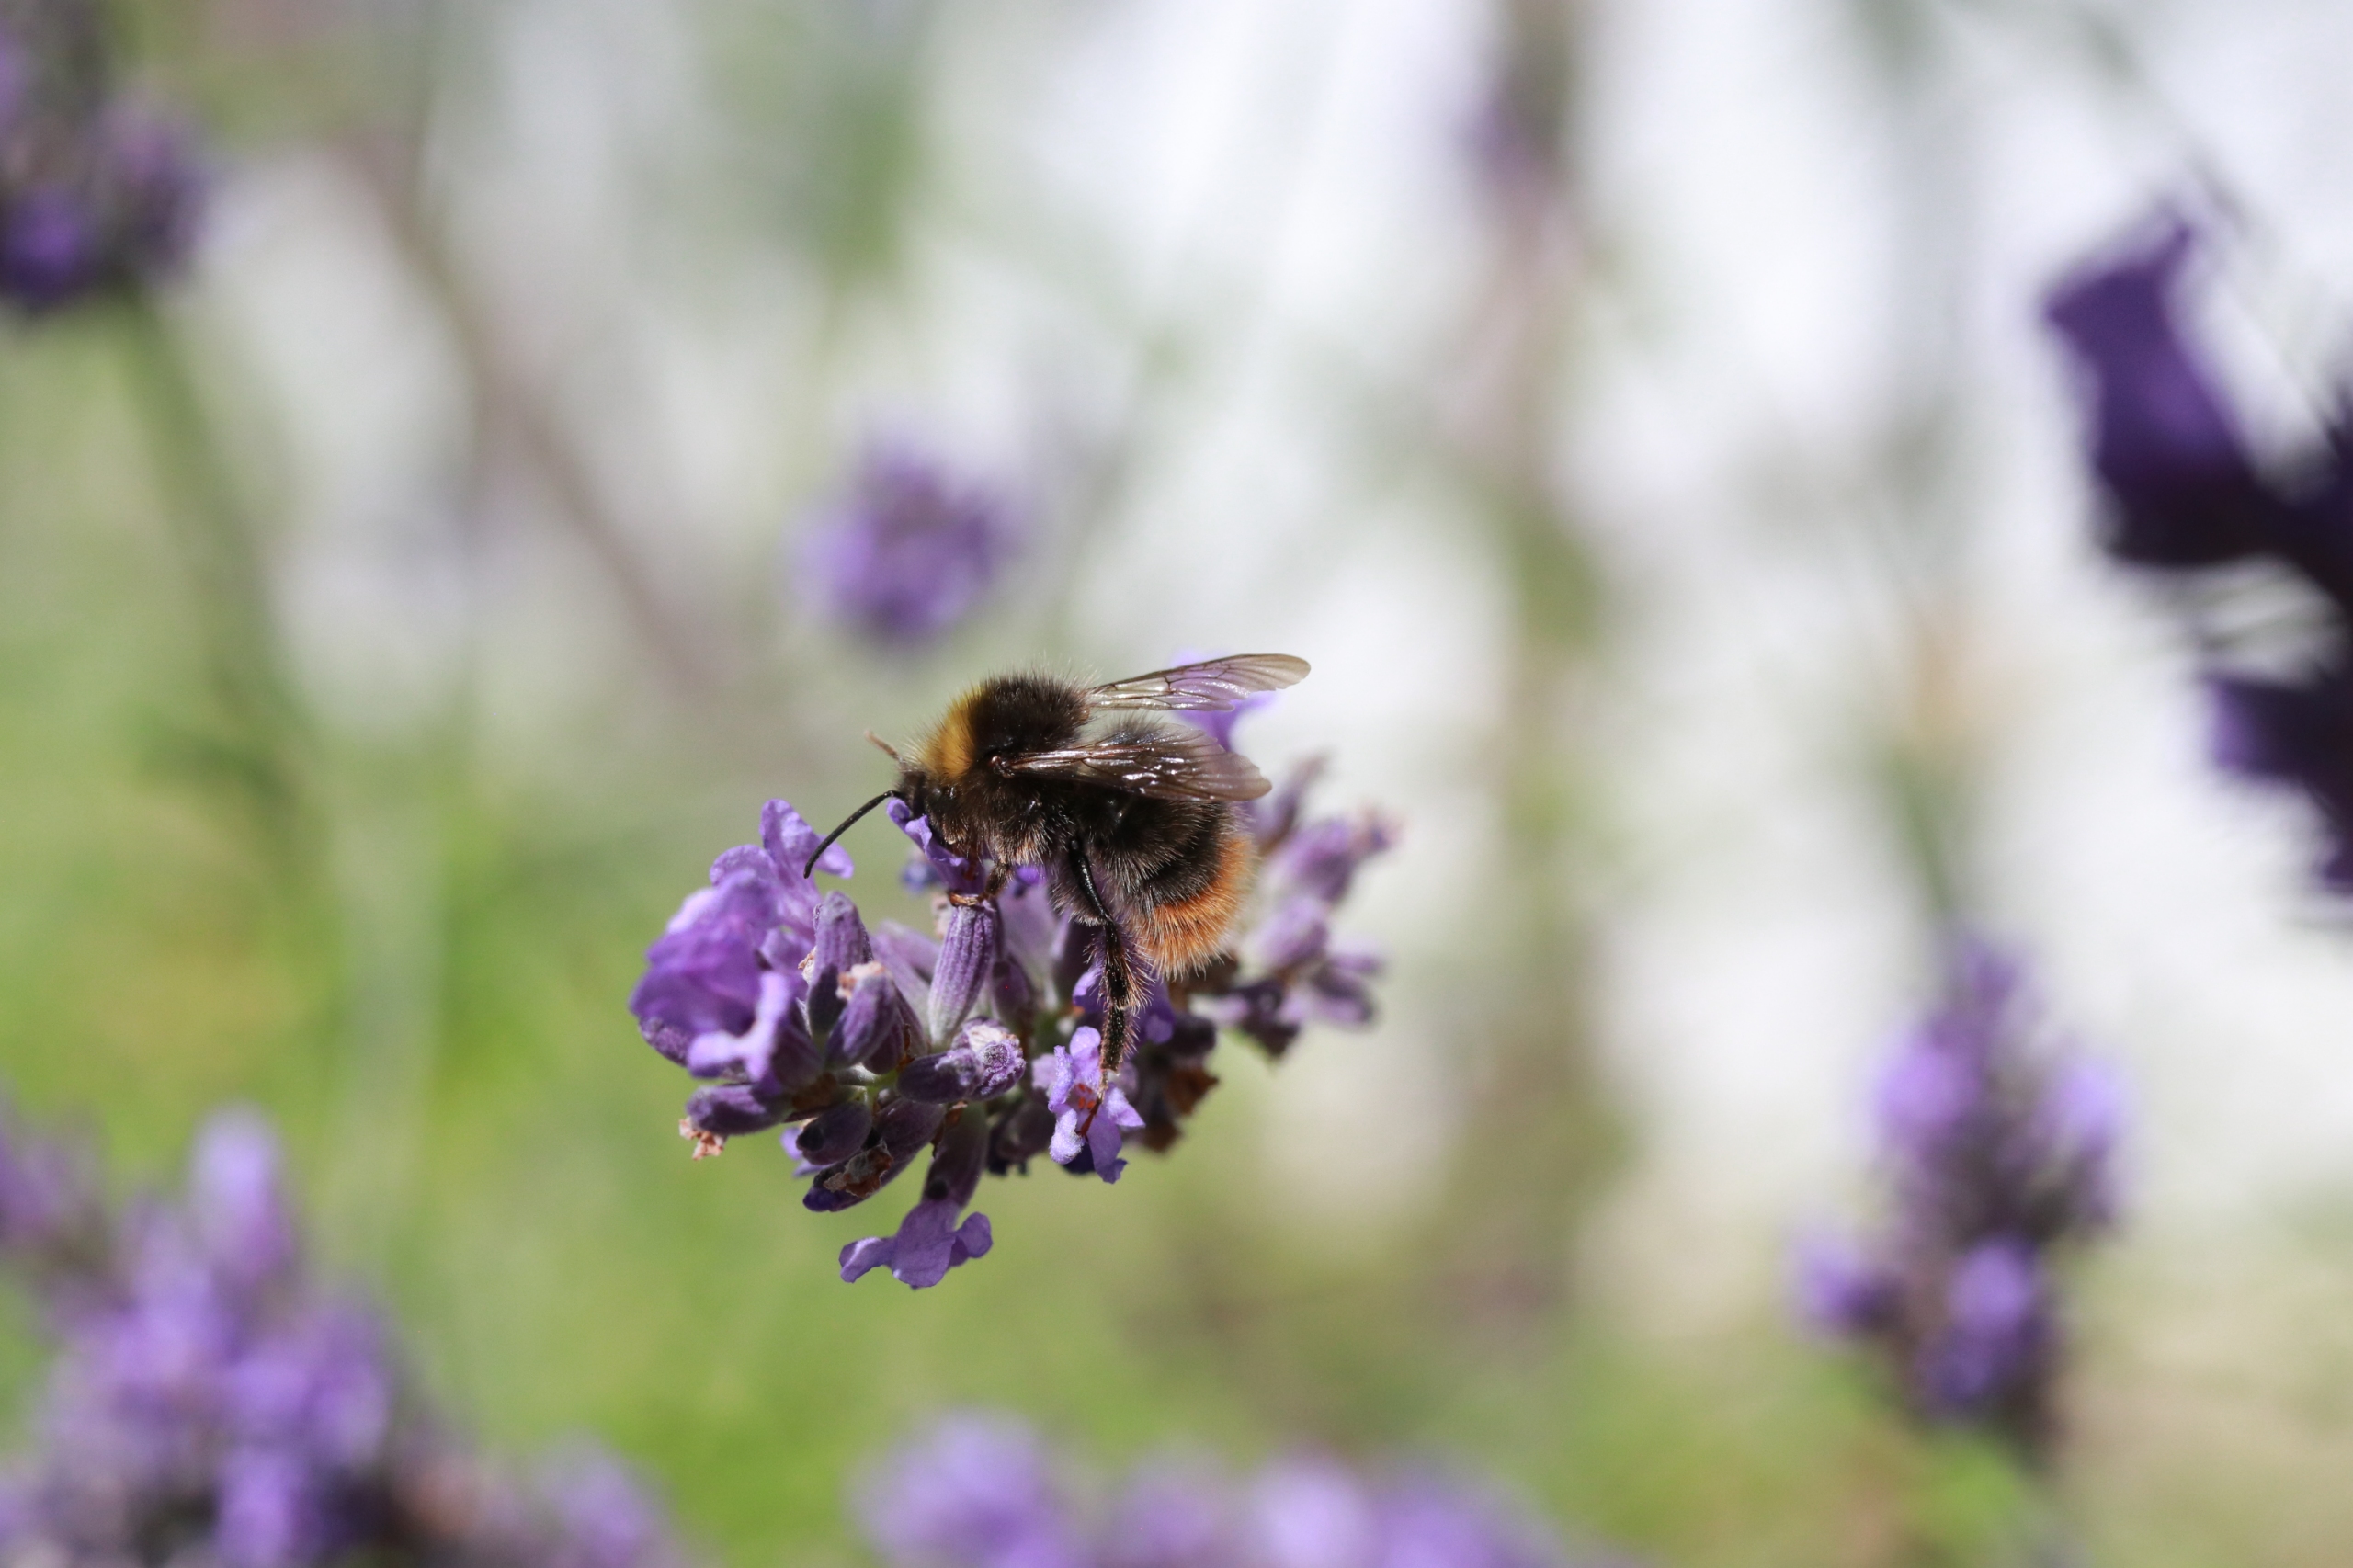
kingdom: Animalia
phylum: Arthropoda
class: Insecta
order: Hymenoptera
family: Apidae
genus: Bombus
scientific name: Bombus pratorum
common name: Lille skovhumle
